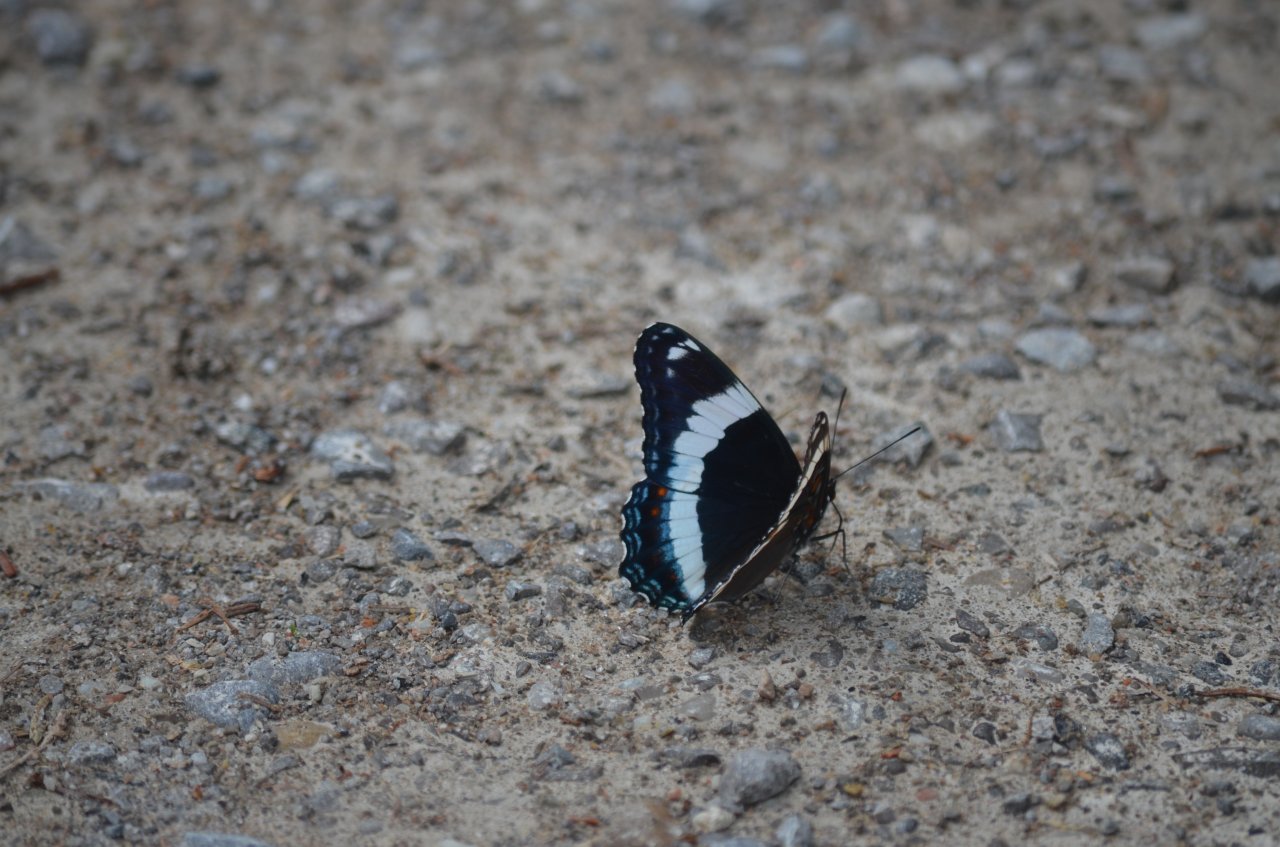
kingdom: Animalia
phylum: Arthropoda
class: Insecta
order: Lepidoptera
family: Nymphalidae
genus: Limenitis
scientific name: Limenitis arthemis
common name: Red-spotted Admiral
